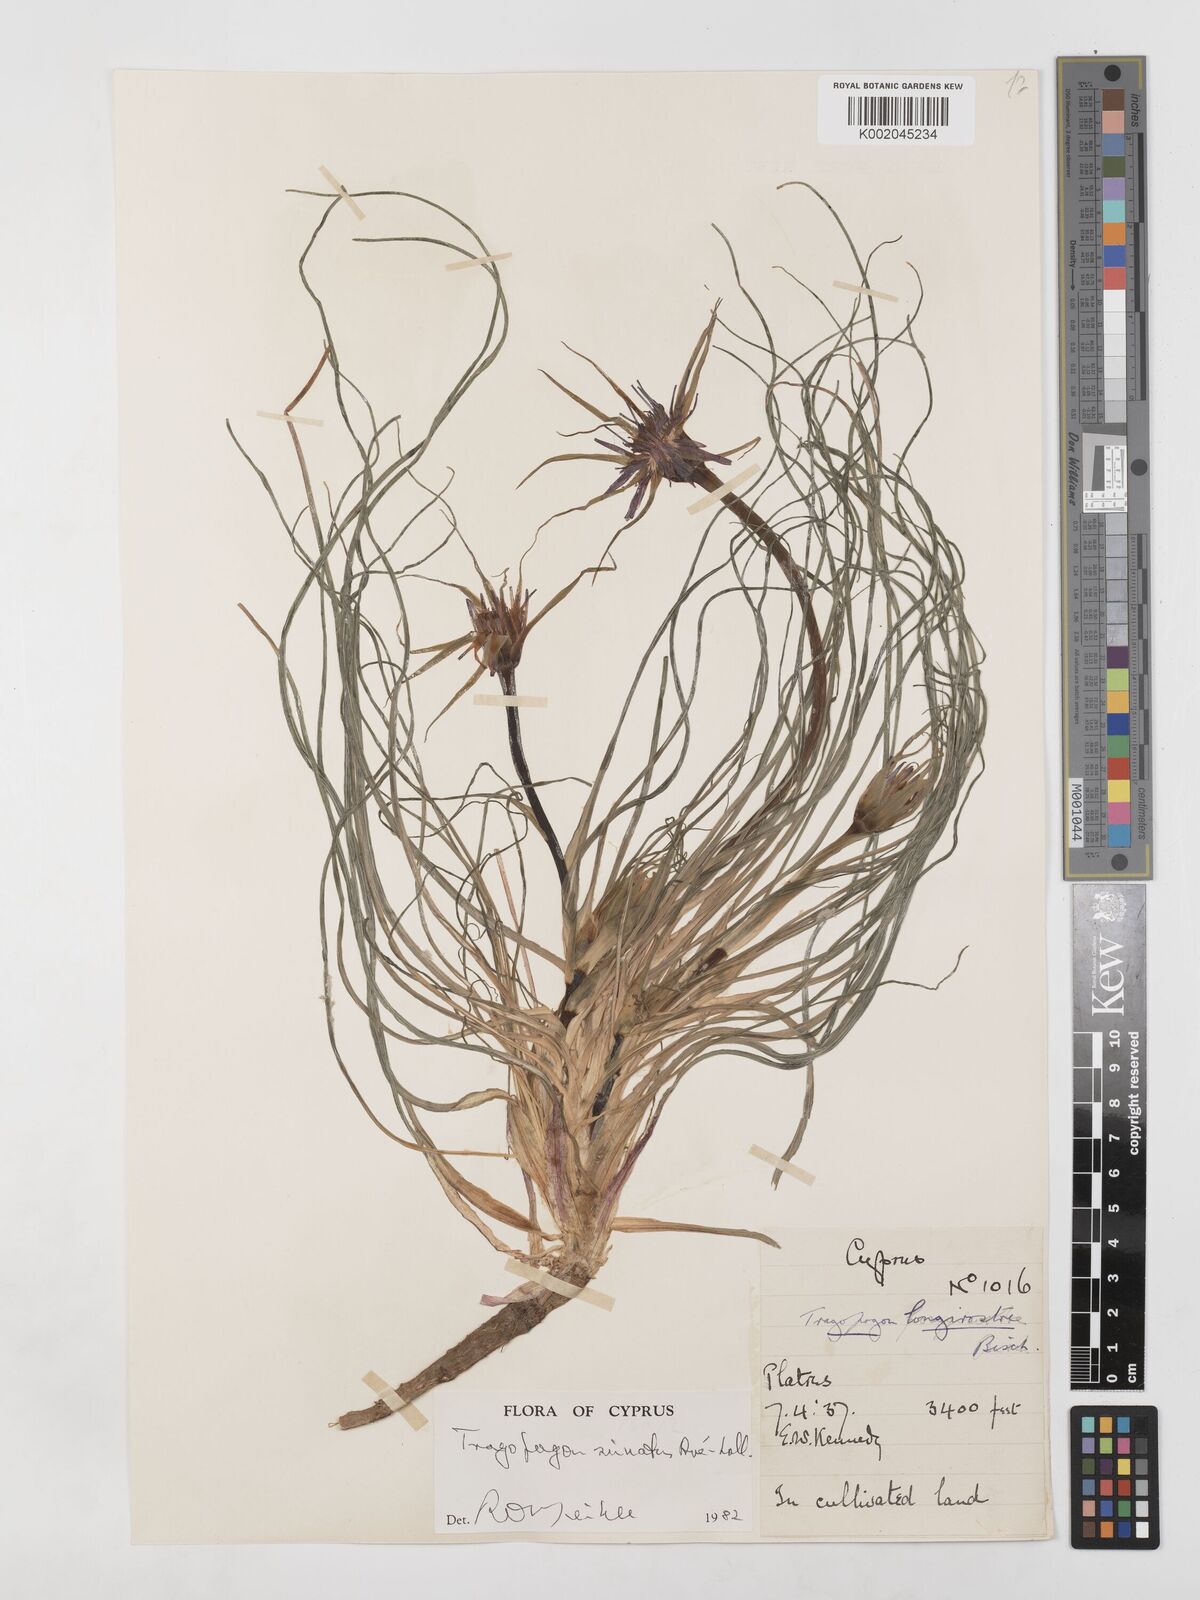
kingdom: Plantae
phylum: Tracheophyta
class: Magnoliopsida
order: Asterales
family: Asteraceae
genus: Tragopogon
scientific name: Tragopogon porrifolius
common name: Salsify
